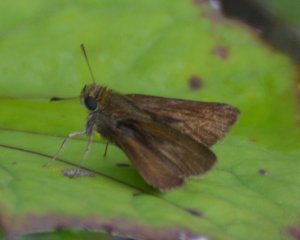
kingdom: Animalia
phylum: Arthropoda
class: Insecta
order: Lepidoptera
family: Hesperiidae
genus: Euphyes
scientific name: Euphyes vestris
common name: Dun Skipper
